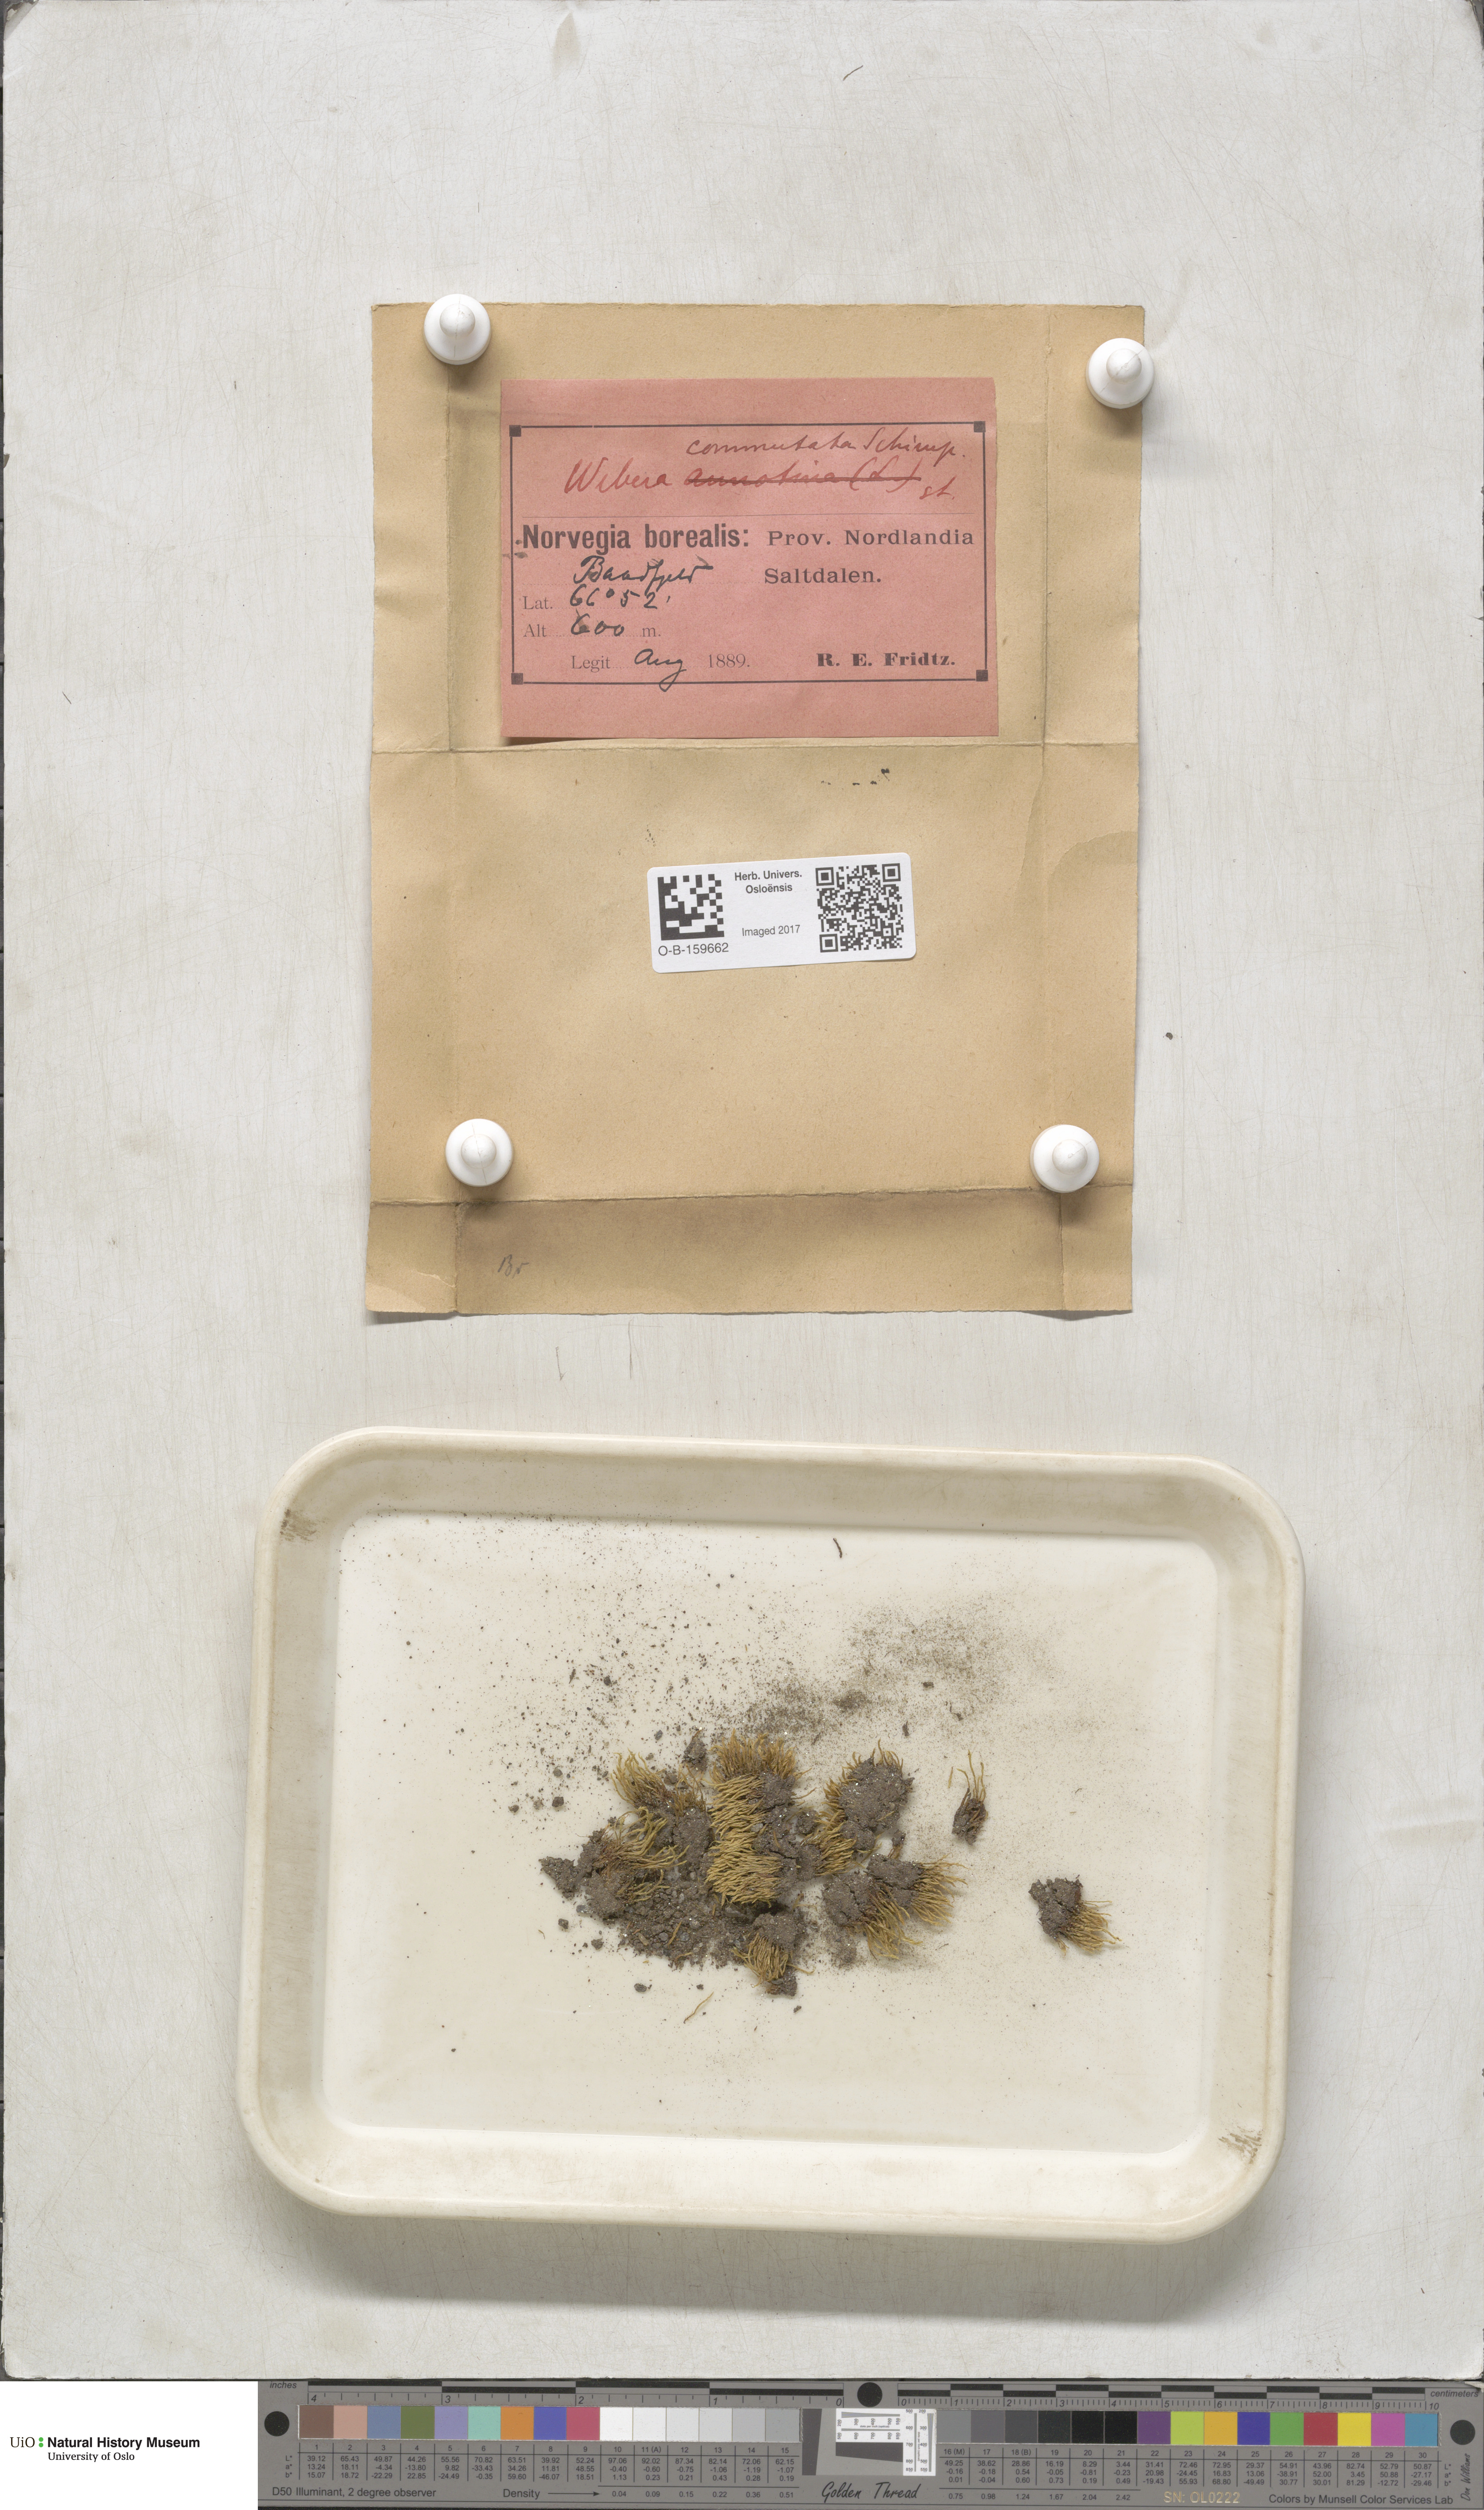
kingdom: Plantae
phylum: Bryophyta
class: Bryopsida
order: Bryales
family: Mniaceae
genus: Pohlia
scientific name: Pohlia drummondii
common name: Drummond's nodding moss
